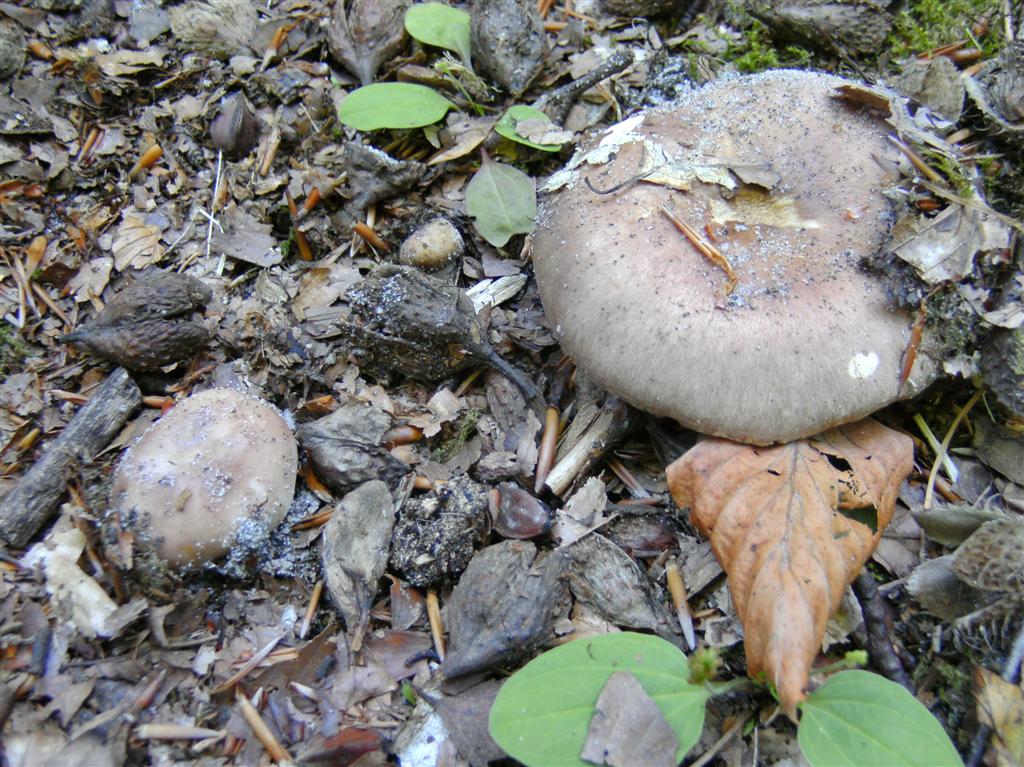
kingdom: Fungi
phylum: Basidiomycota
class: Agaricomycetes
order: Russulales
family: Russulaceae
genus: Russula
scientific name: Russula vesca
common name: spiselig skørhat
